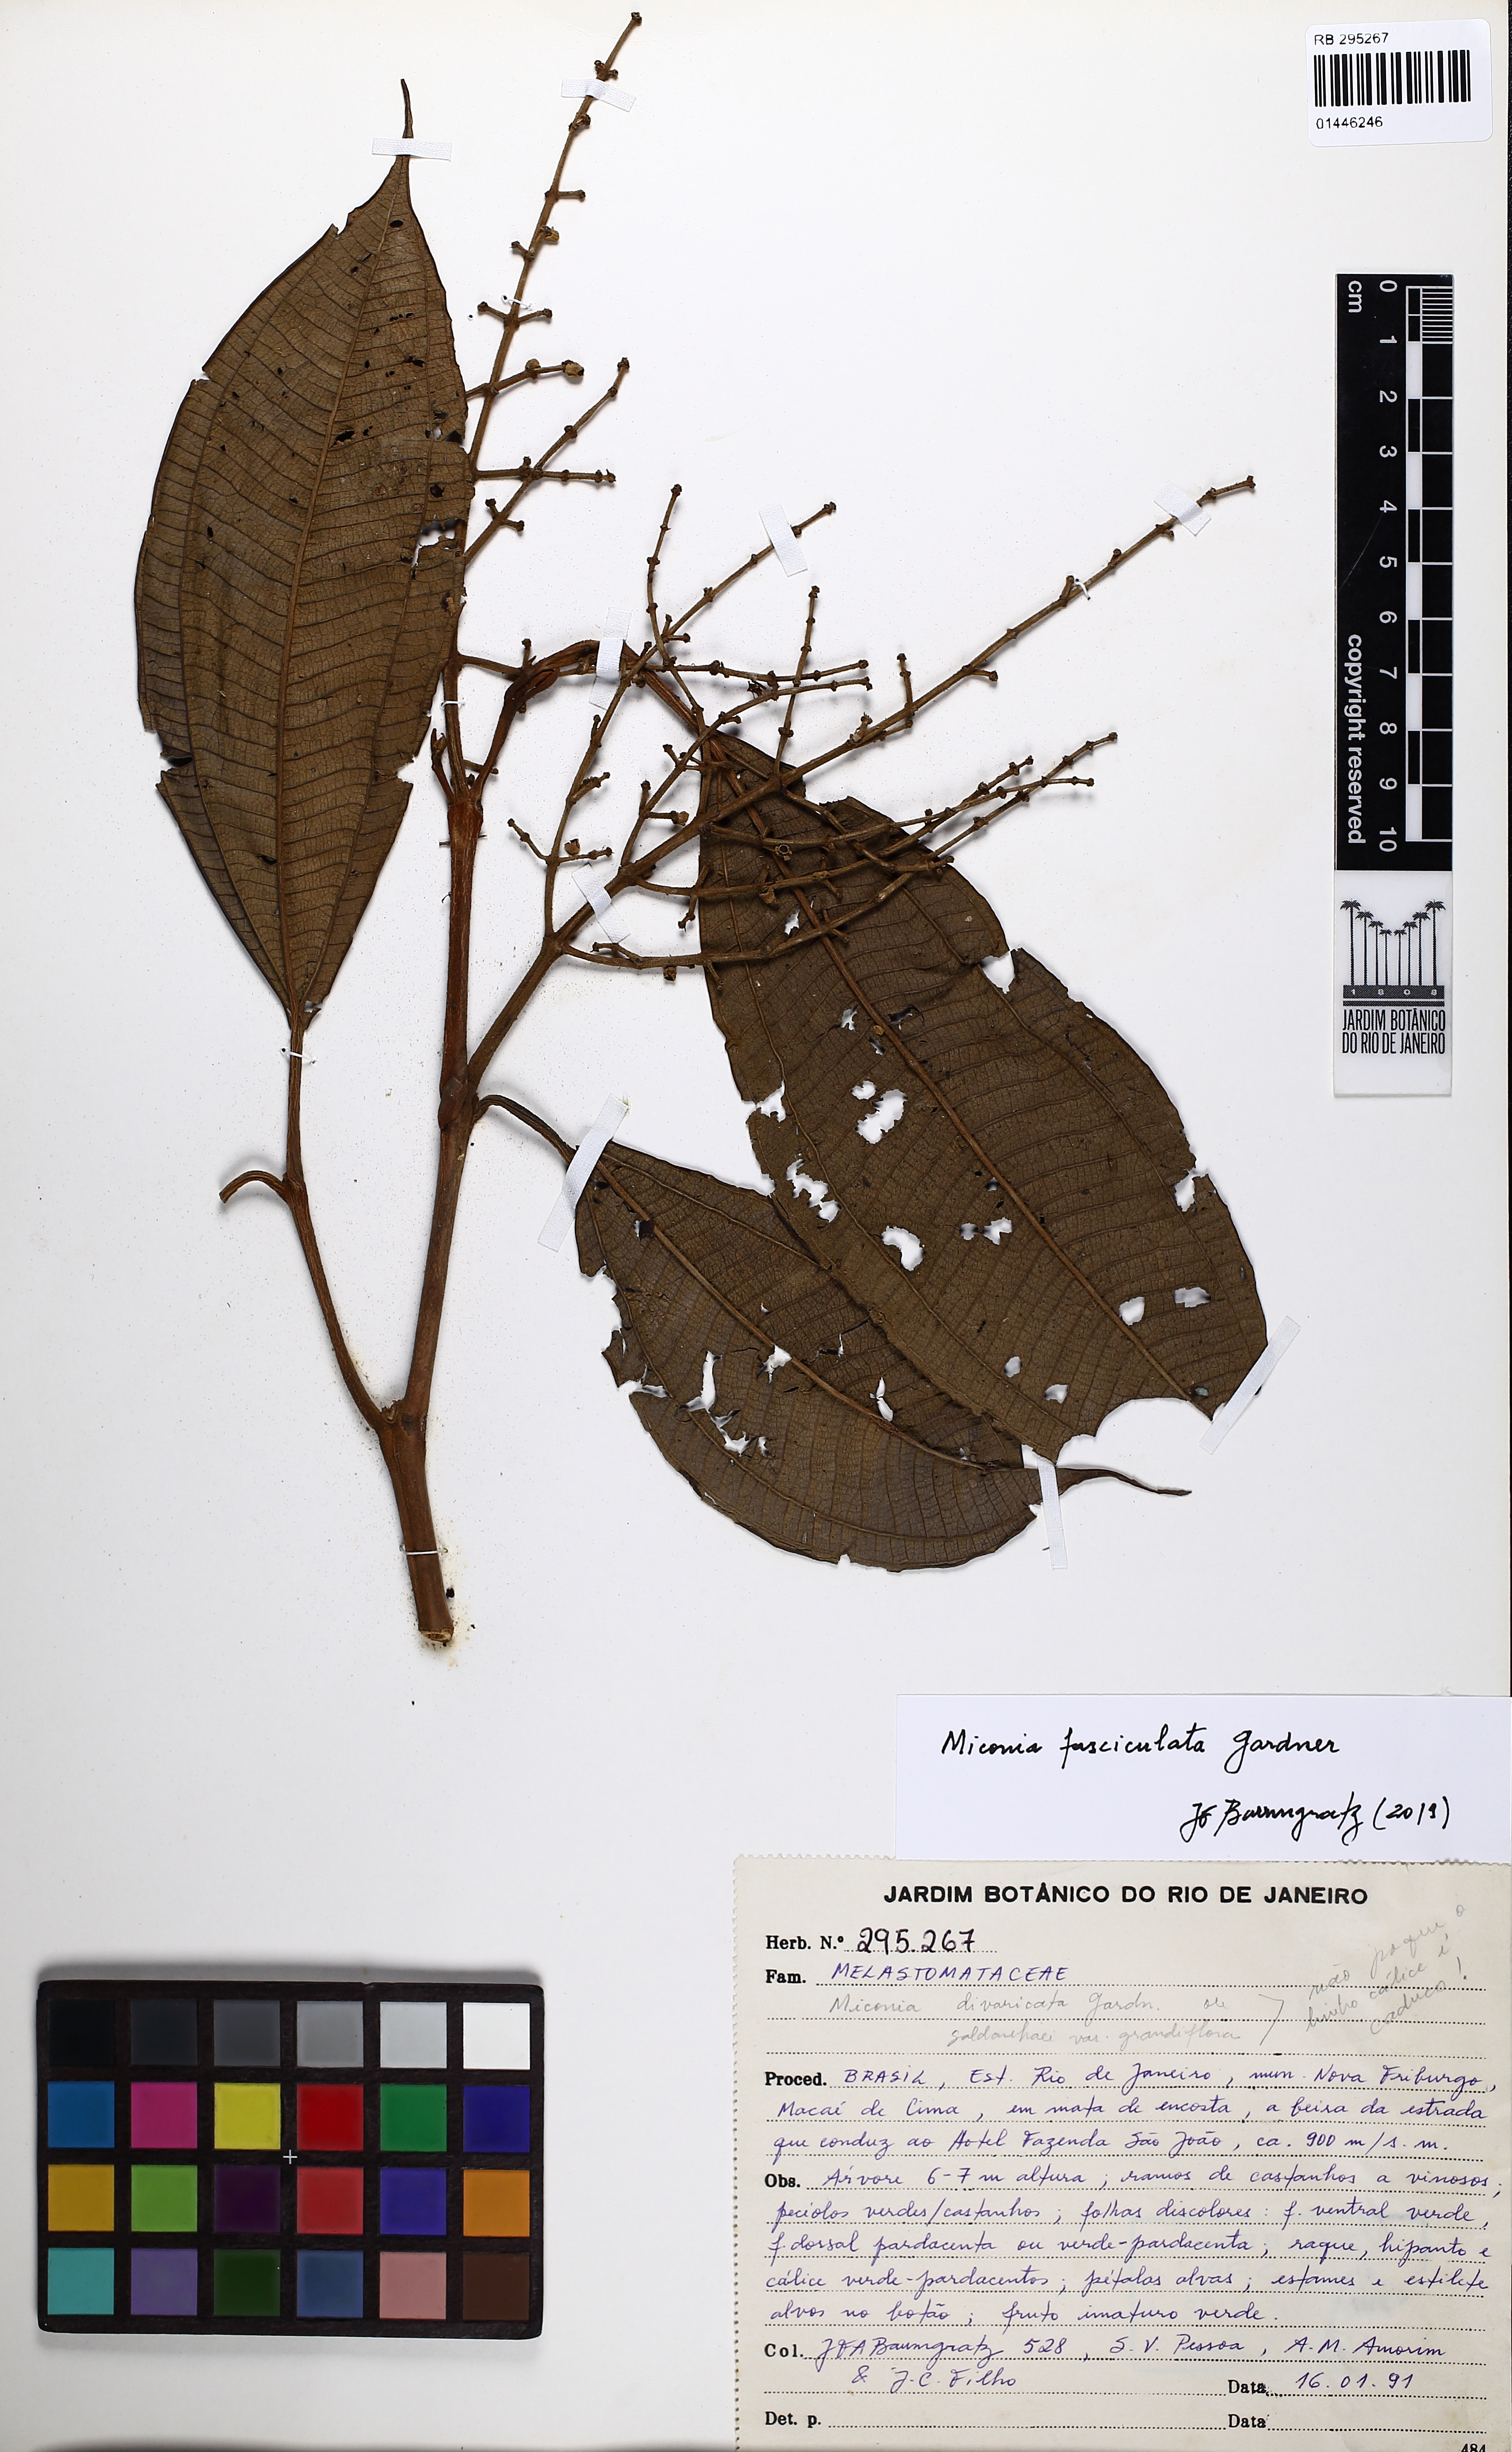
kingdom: Plantae
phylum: Tracheophyta
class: Magnoliopsida
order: Myrtales
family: Melastomataceae
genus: Miconia
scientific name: Miconia fasciculata
